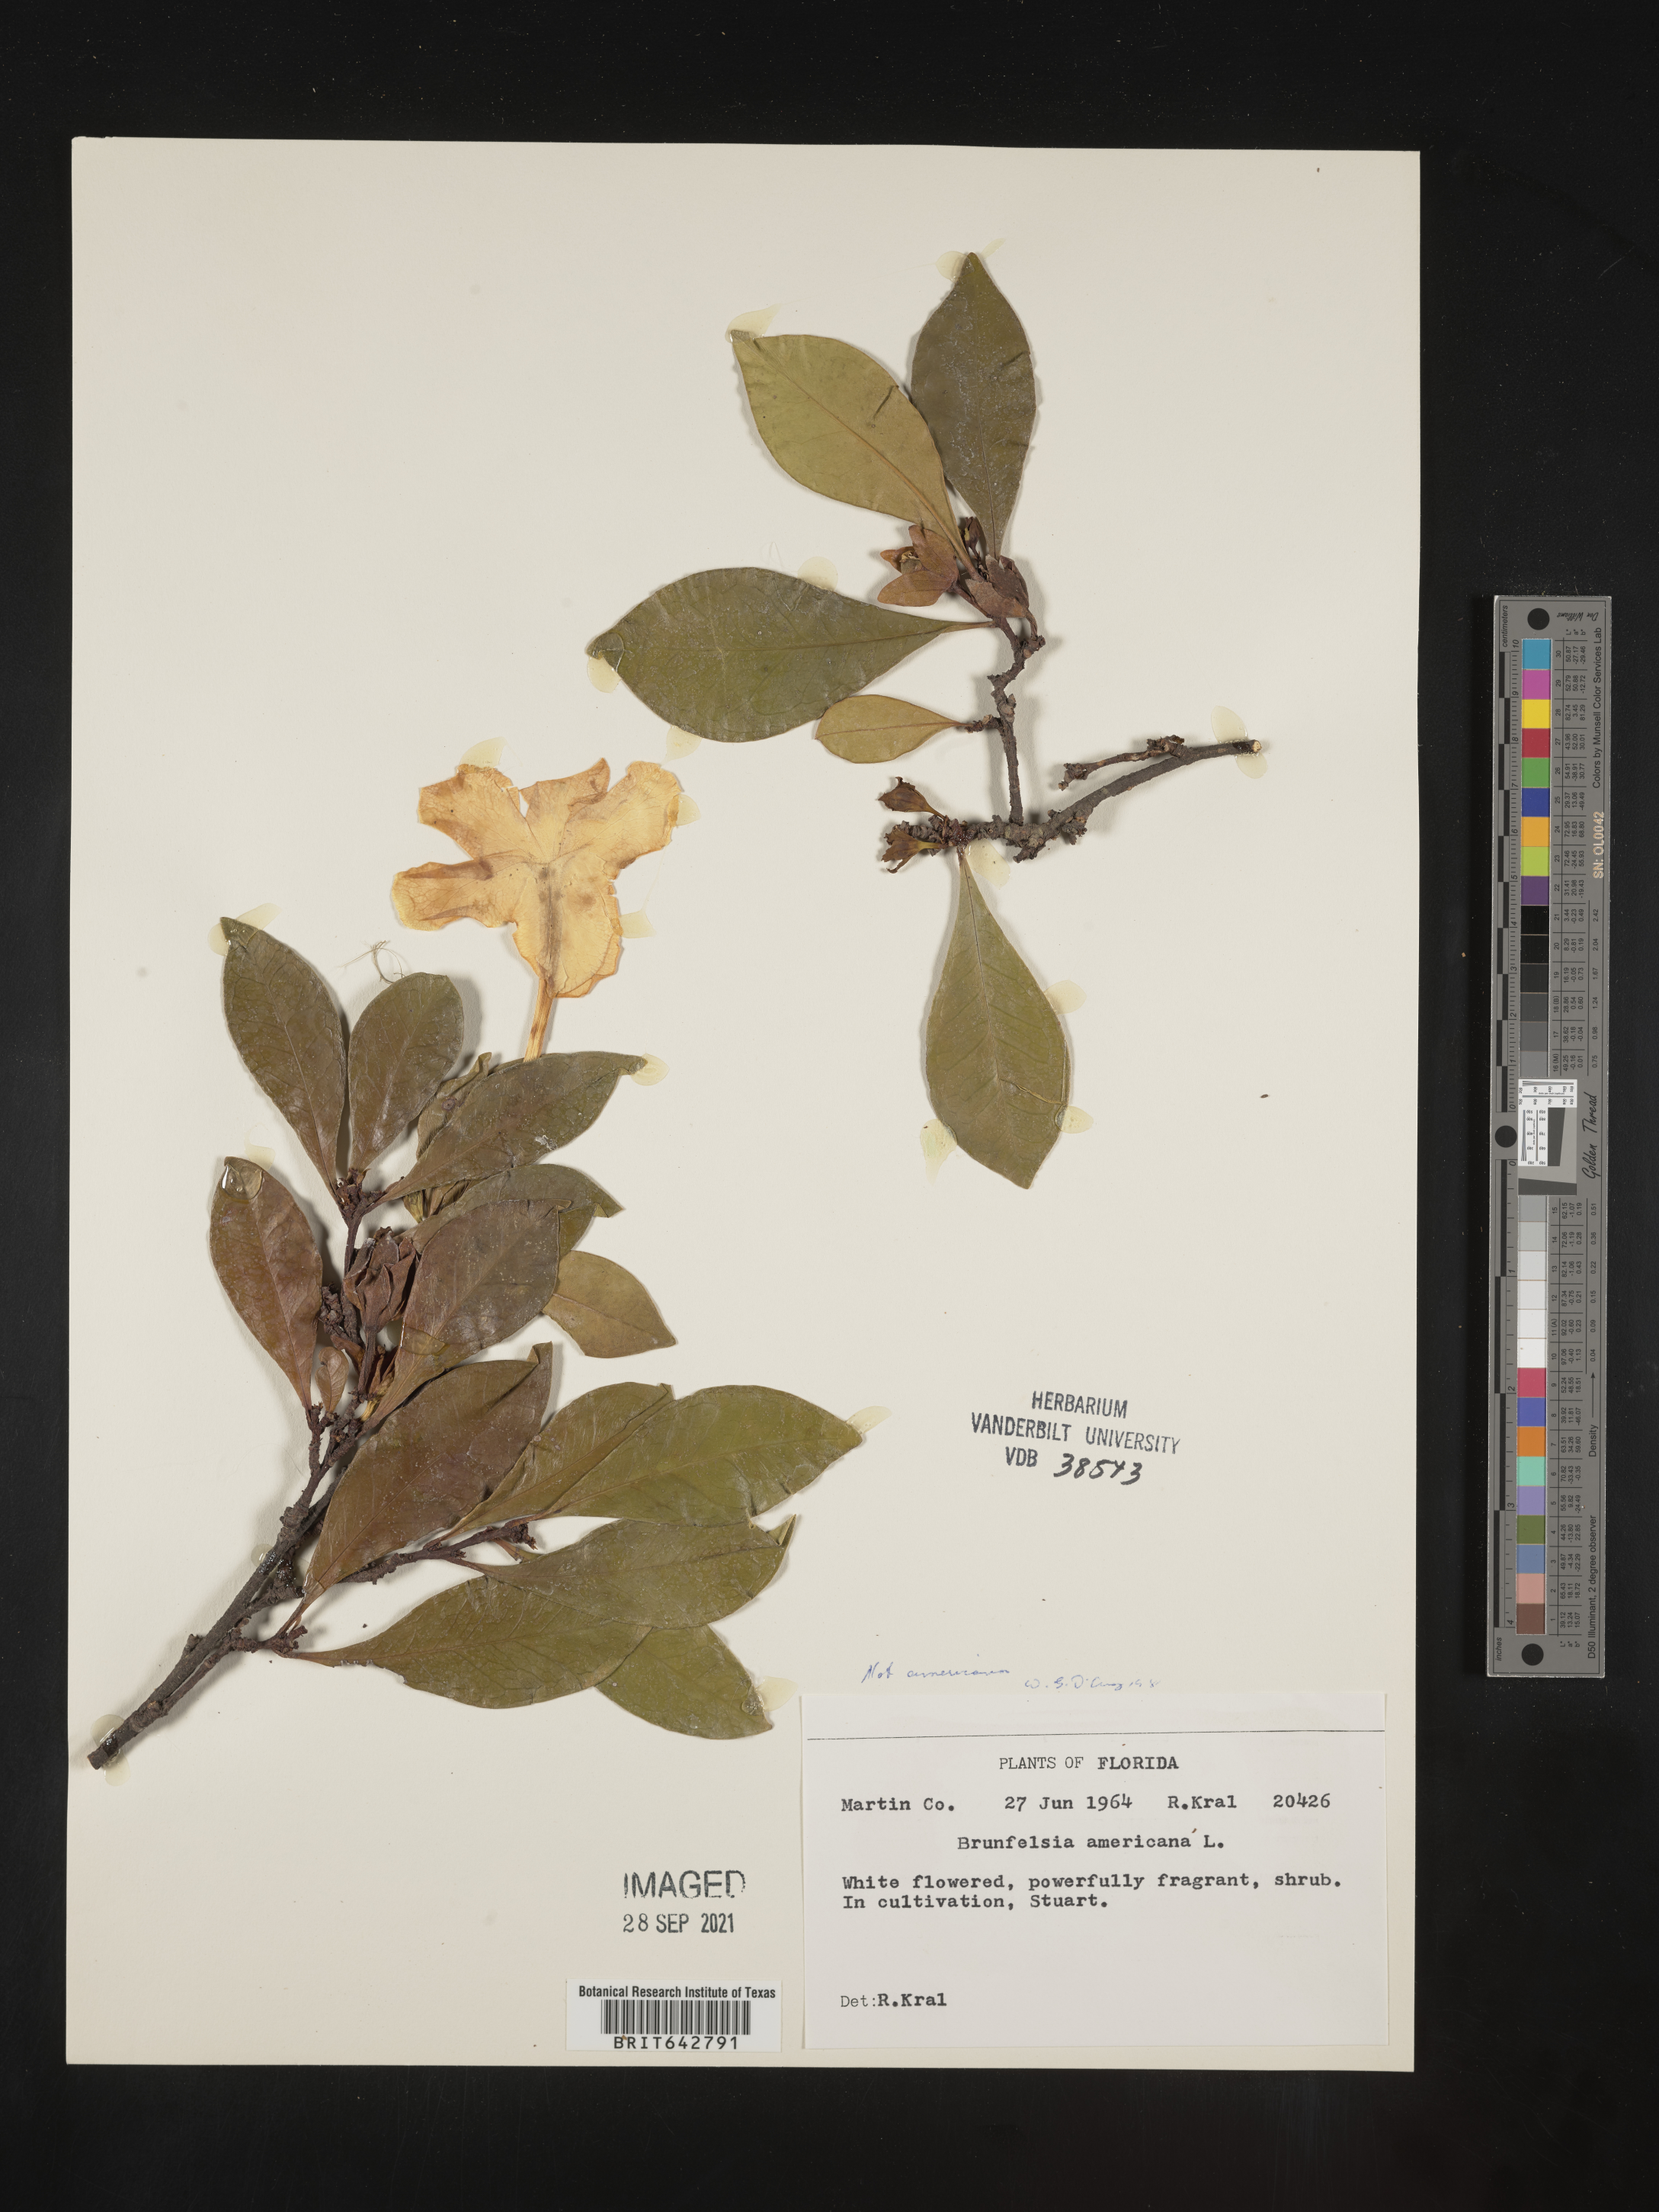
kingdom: Plantae
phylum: Tracheophyta
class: Magnoliopsida
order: Solanales
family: Solanaceae
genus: Brunfelsia
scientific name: Brunfelsia
